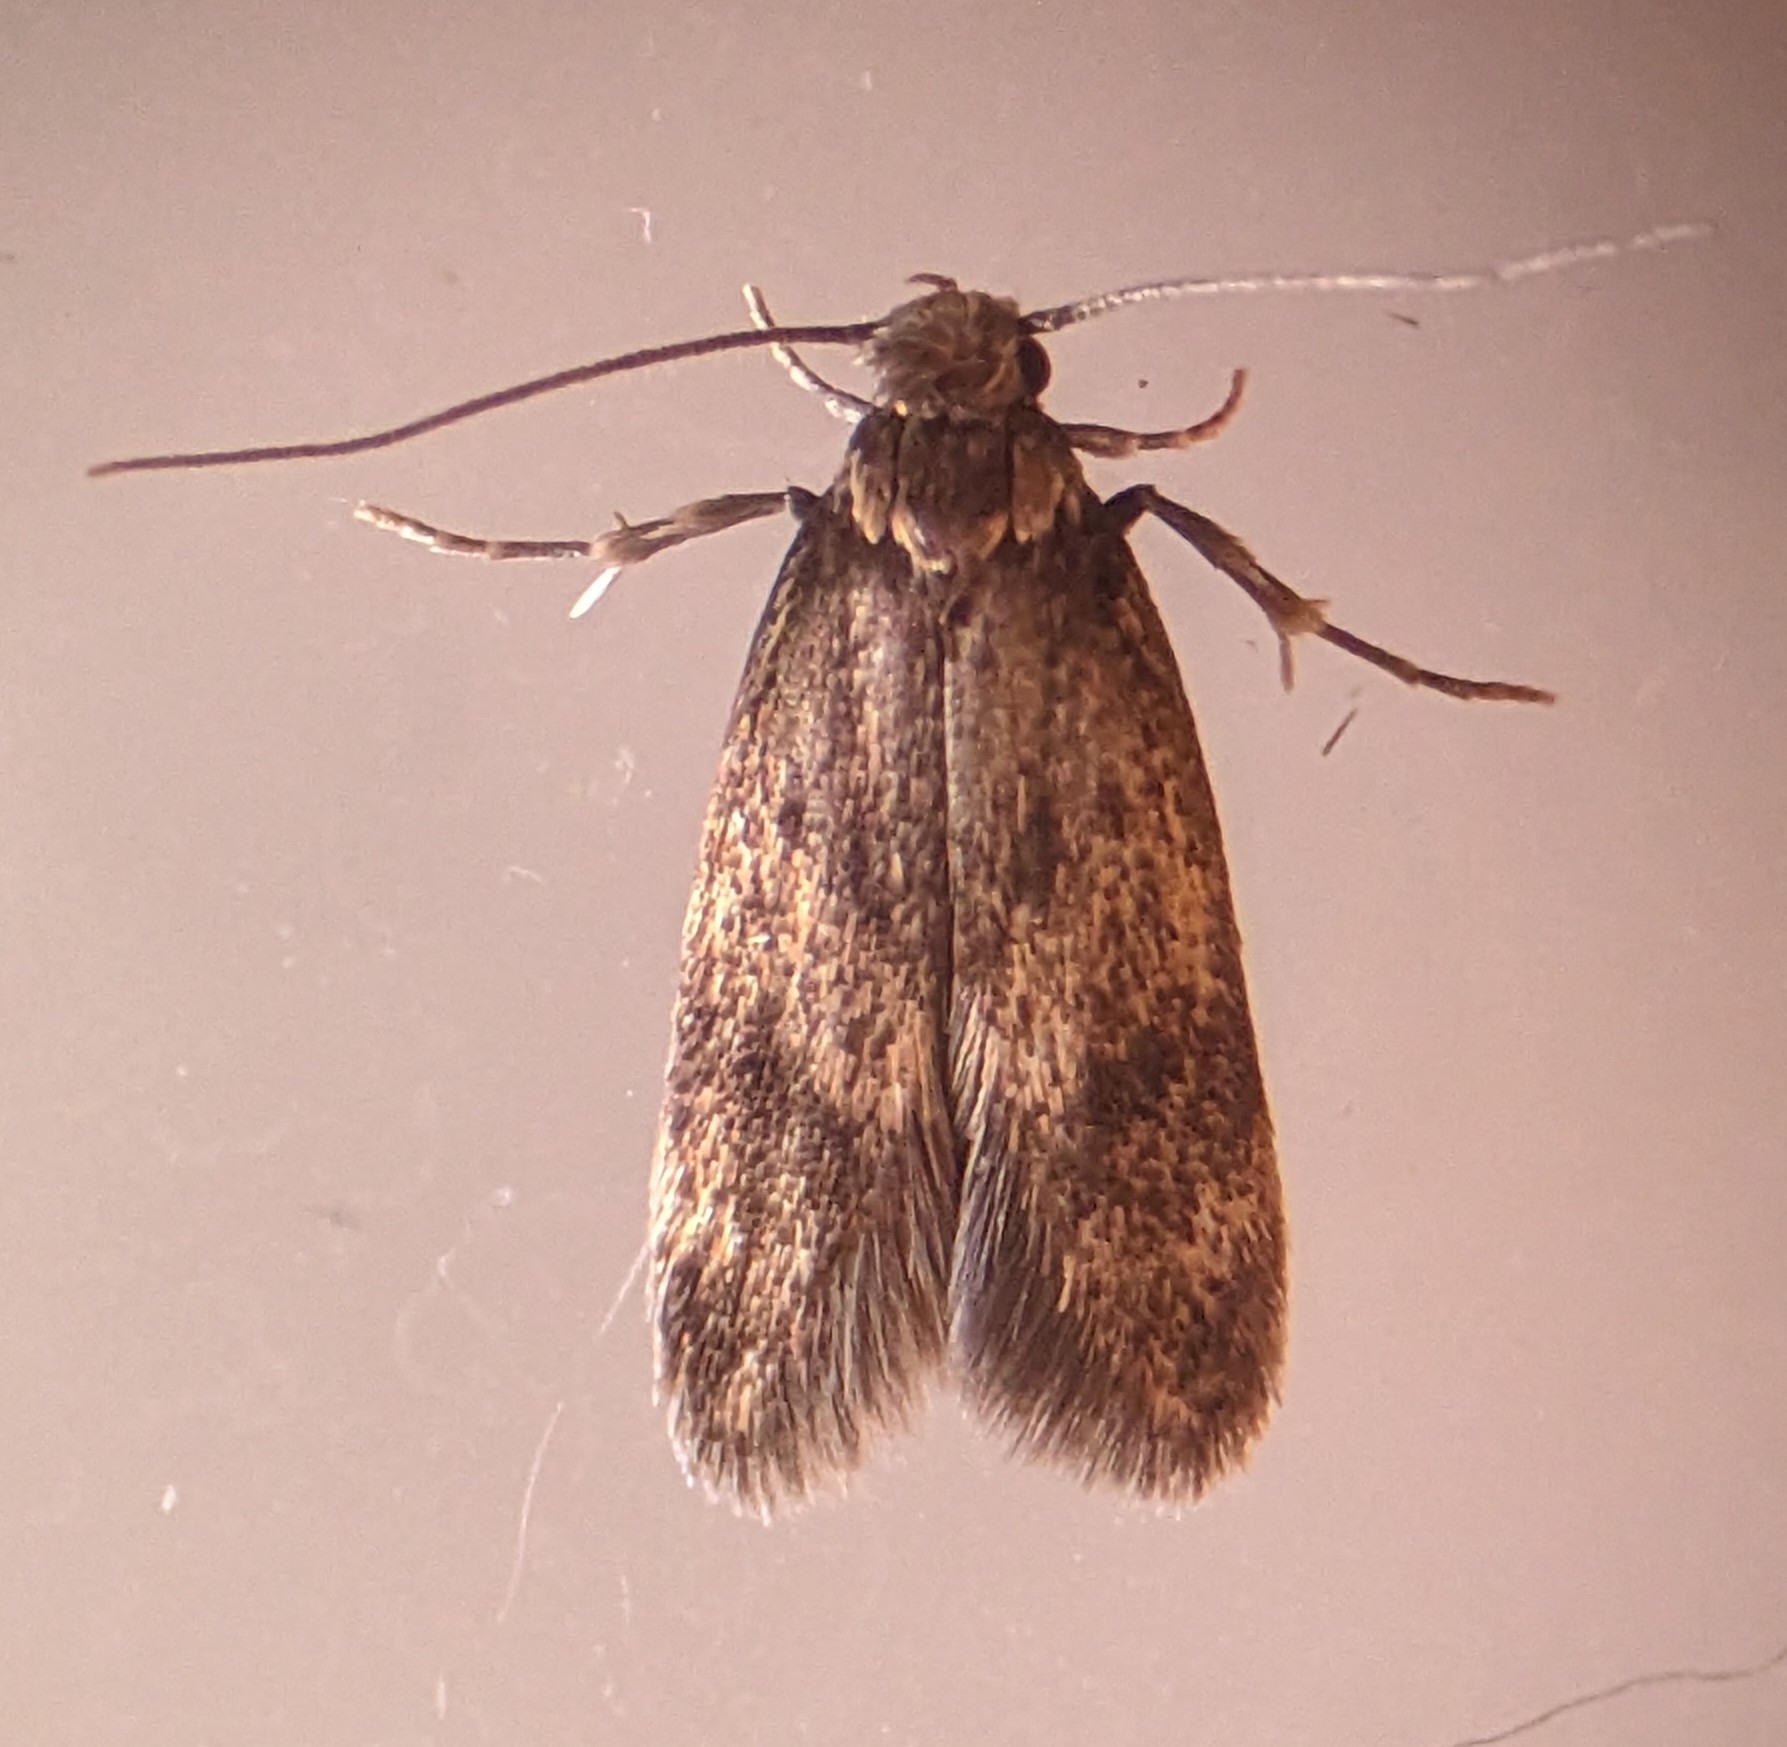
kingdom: Animalia
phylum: Arthropoda
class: Insecta
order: Lepidoptera
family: Oecophoridae
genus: Borkhausenia
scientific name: Borkhausenia fuscescens
